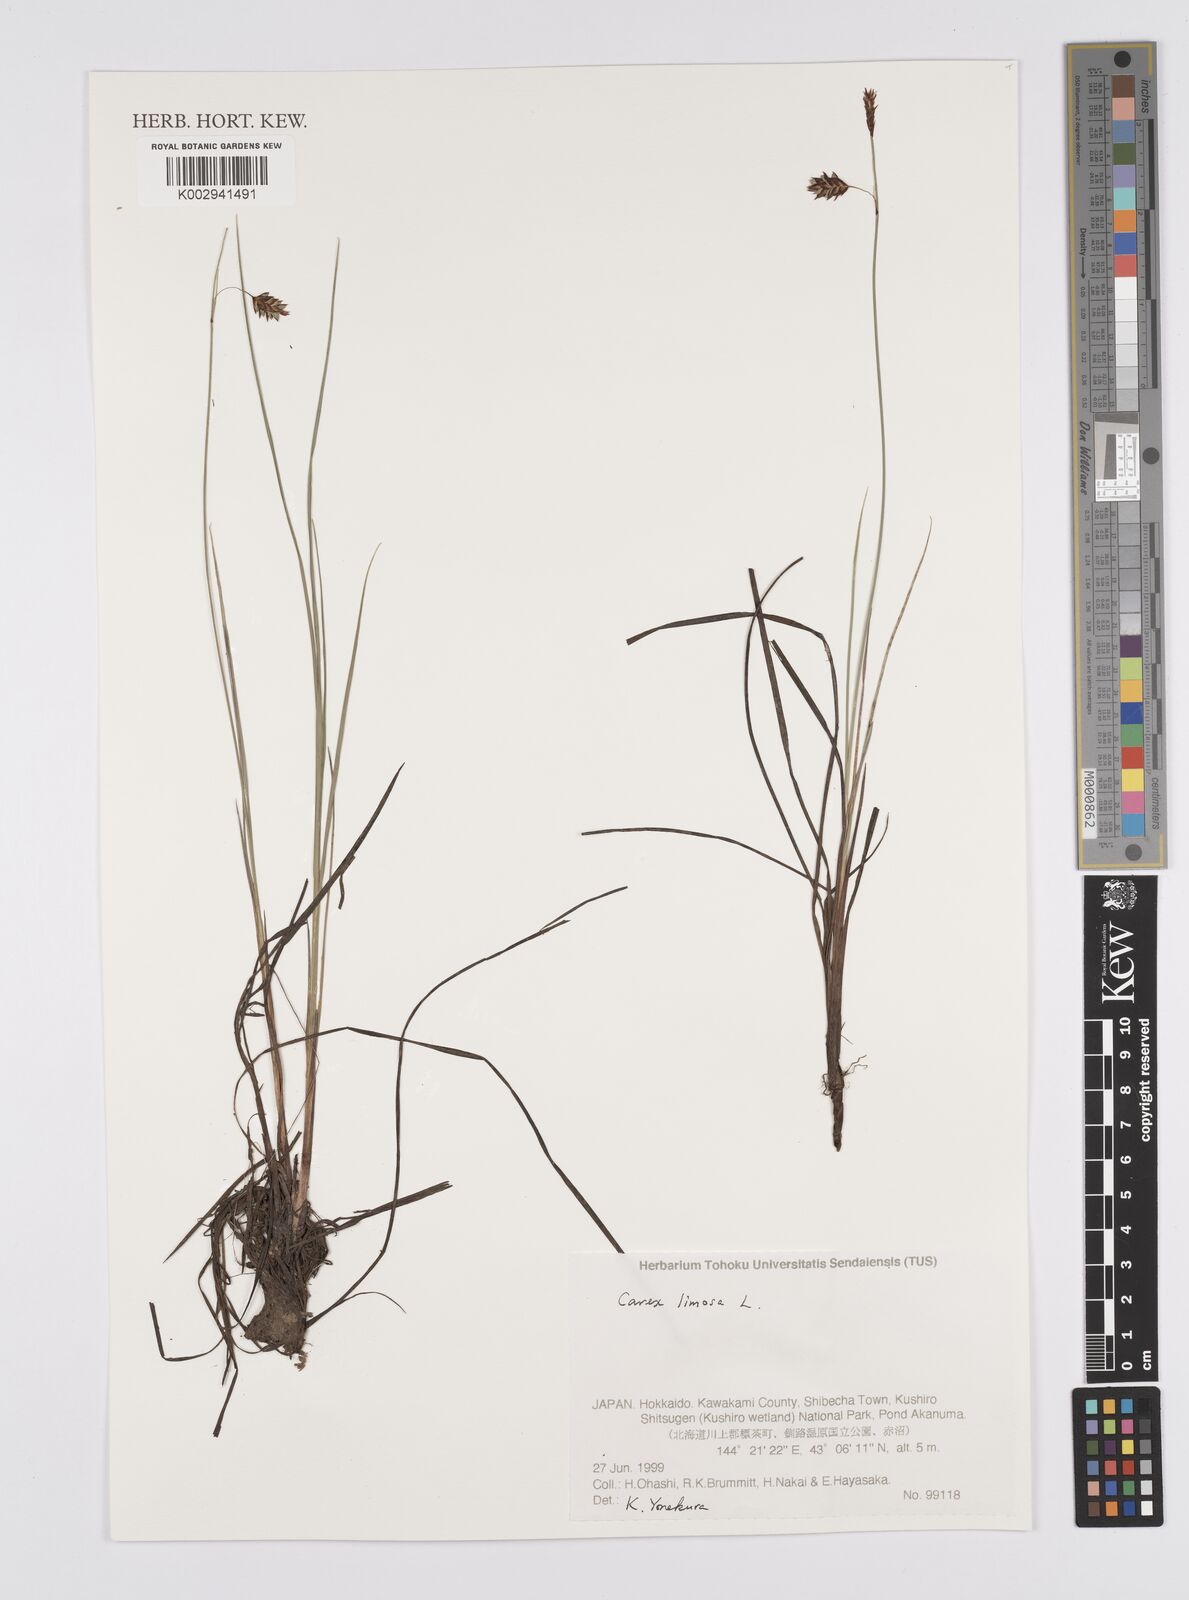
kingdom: Plantae
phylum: Tracheophyta
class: Liliopsida
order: Poales
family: Cyperaceae
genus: Carex
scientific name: Carex limosa
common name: Bog sedge
